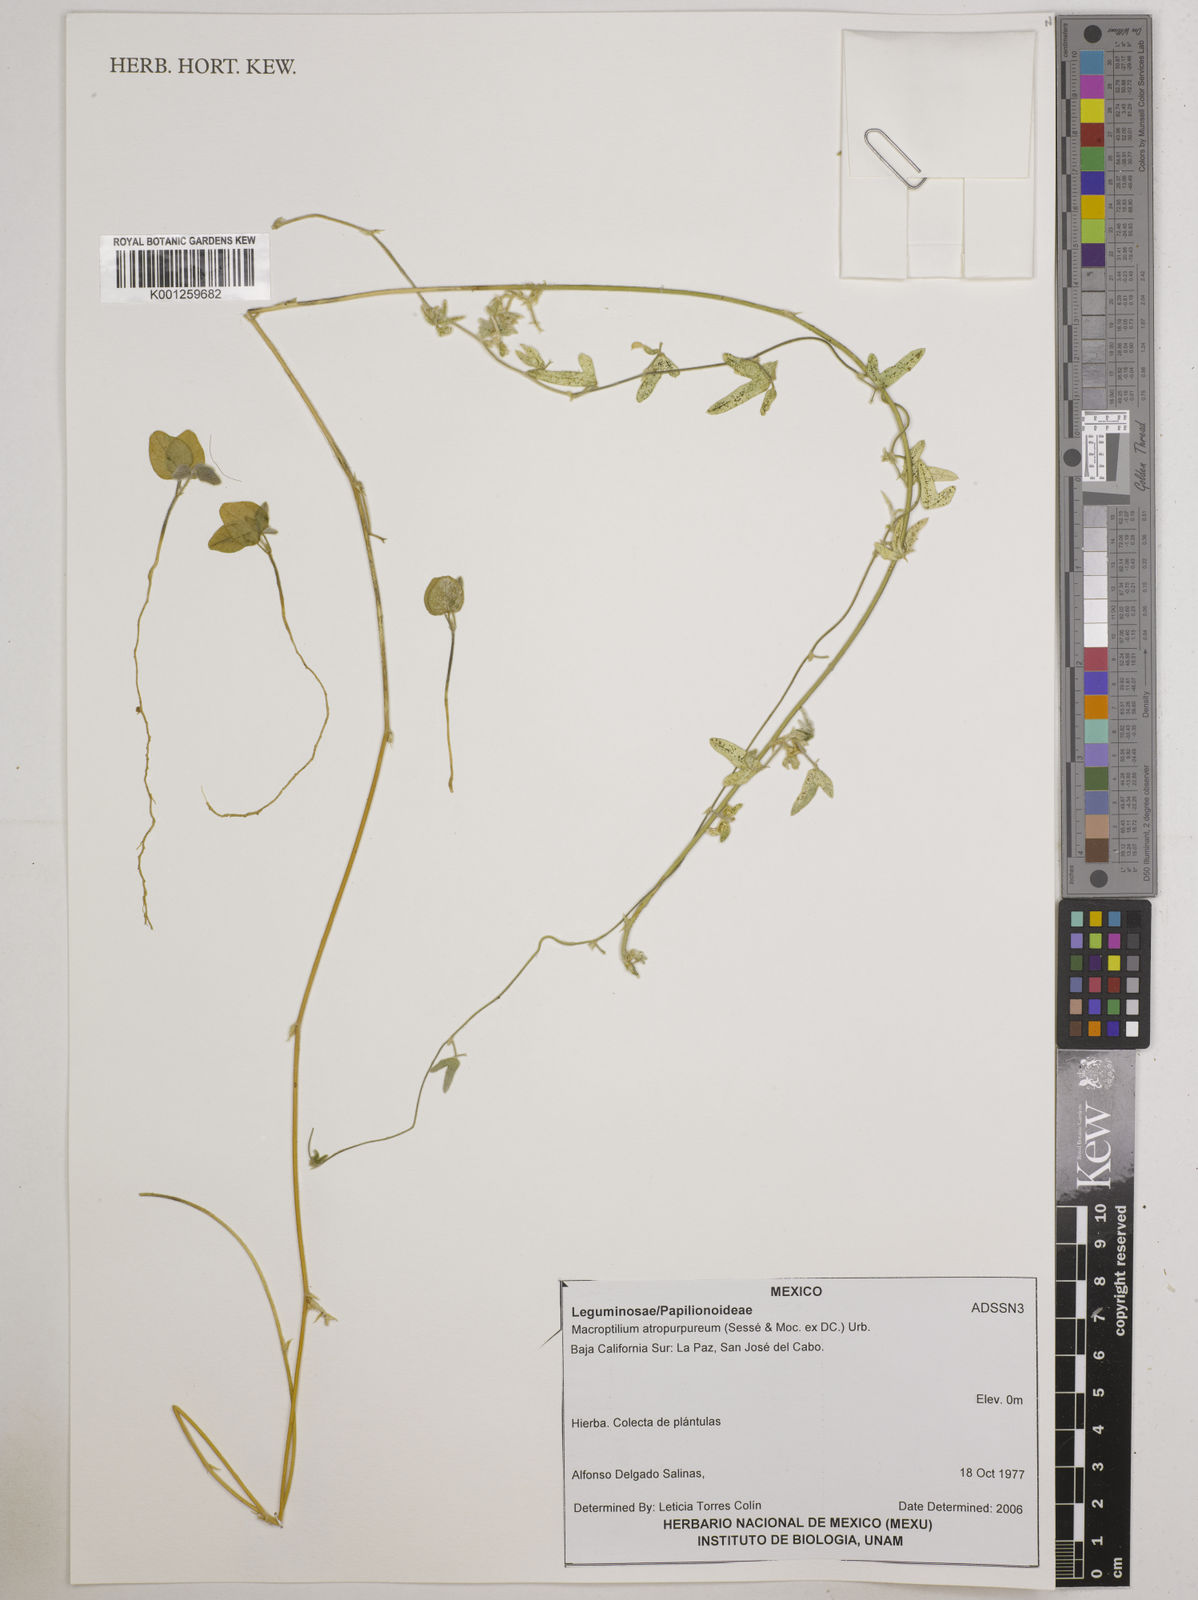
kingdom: Plantae
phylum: Tracheophyta
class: Magnoliopsida
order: Fabales
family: Fabaceae
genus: Macroptilium
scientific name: Macroptilium atropurpureum
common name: Purple bushbean
